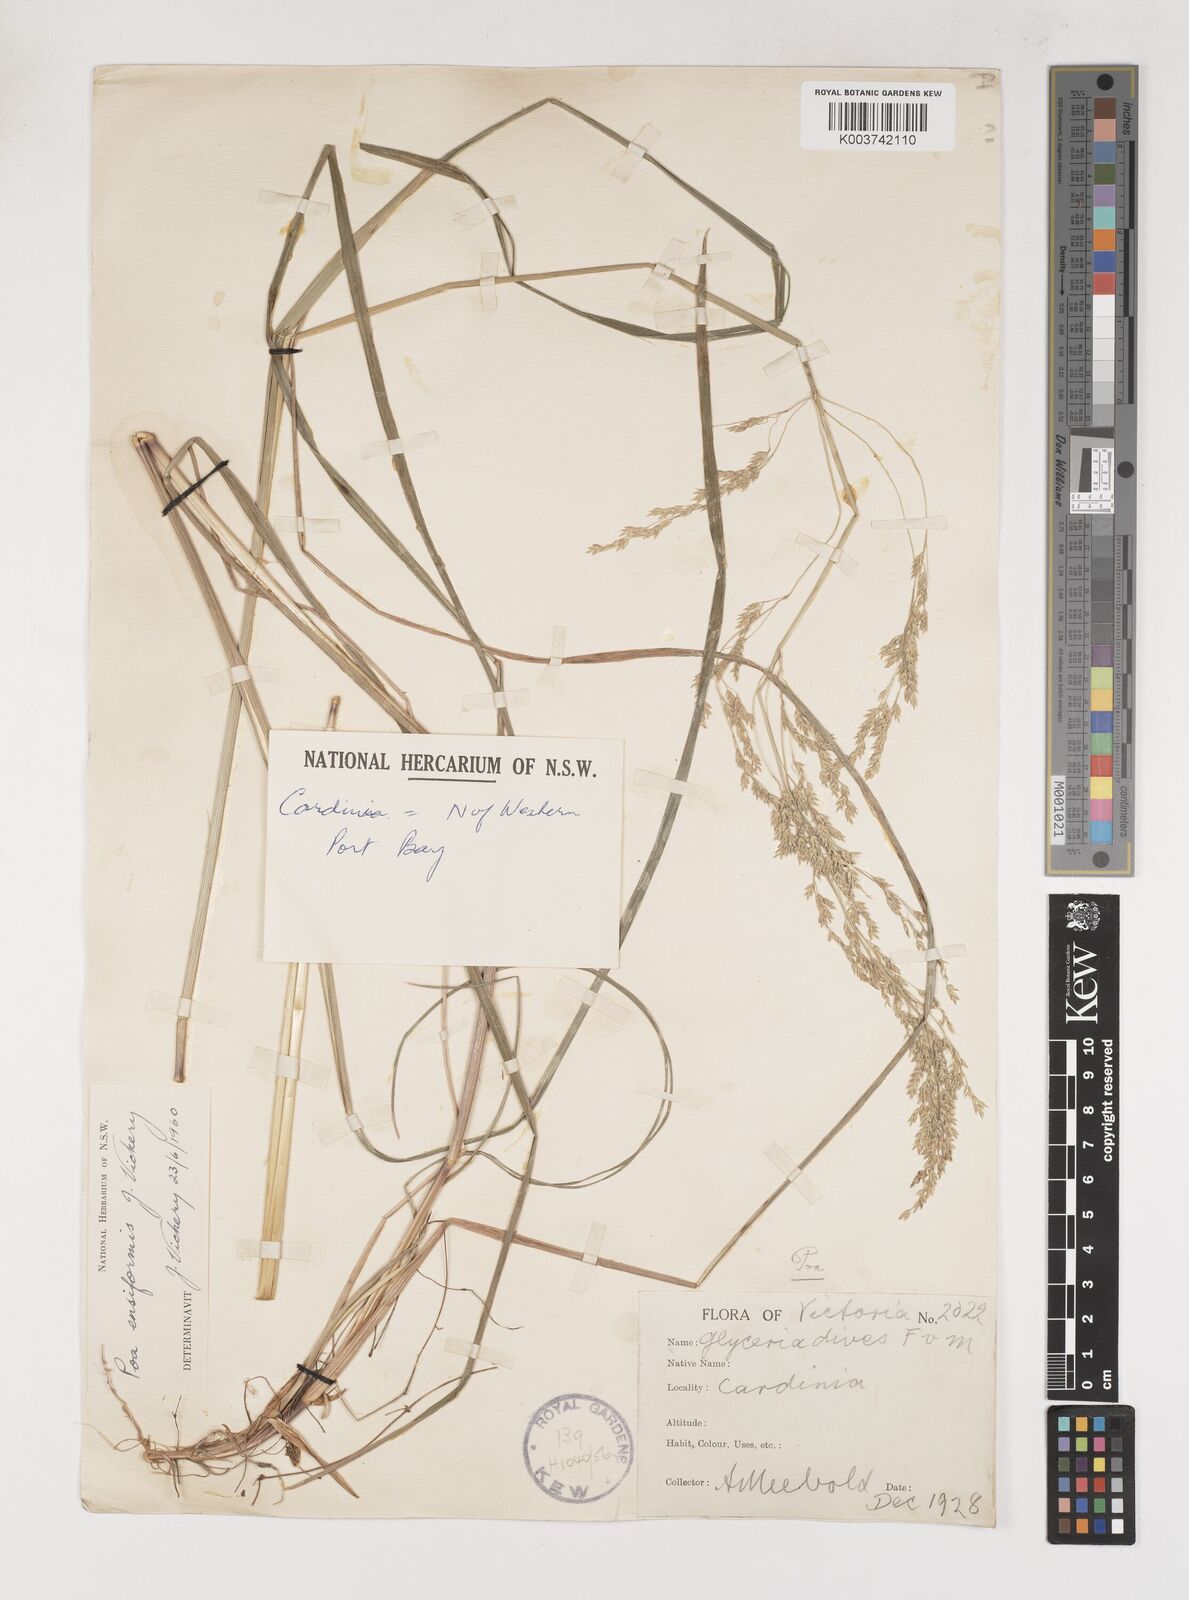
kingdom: Plantae
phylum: Tracheophyta
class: Liliopsida
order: Poales
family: Poaceae
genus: Poa
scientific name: Poa ensiformis
